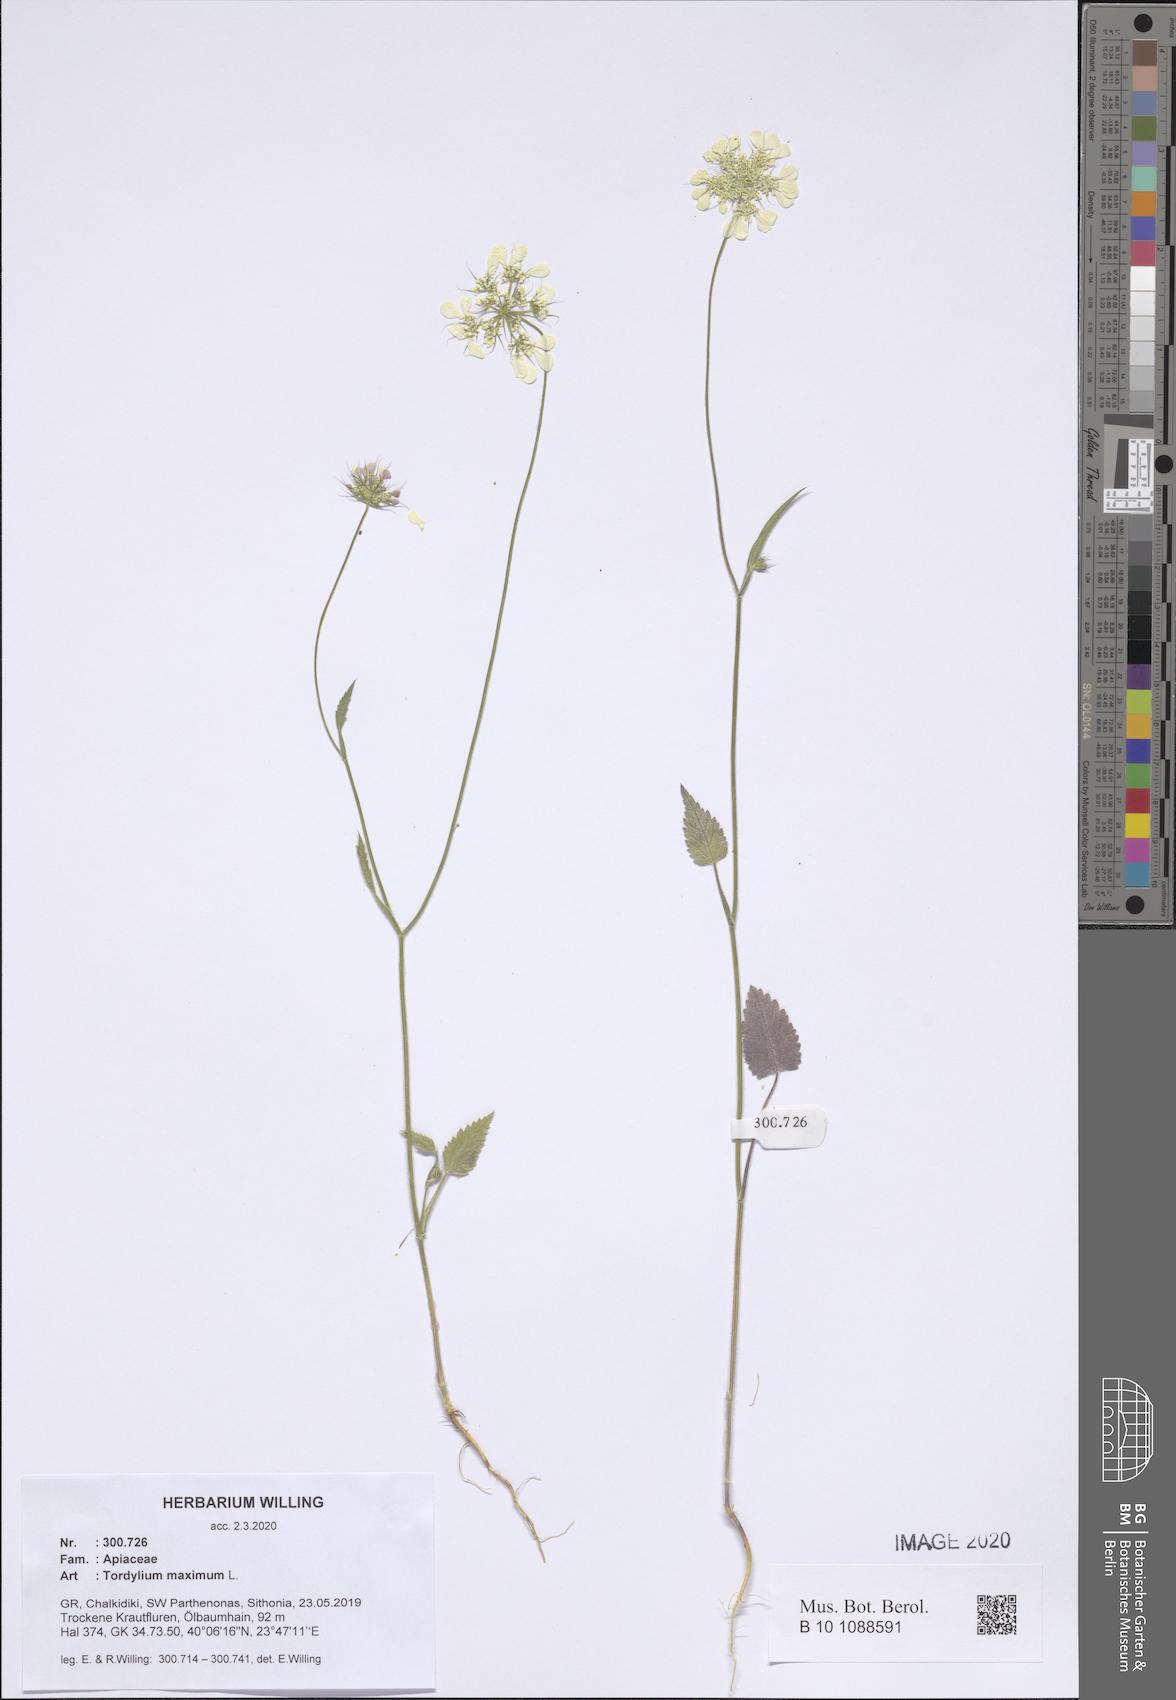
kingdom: Plantae
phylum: Tracheophyta
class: Magnoliopsida
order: Apiales
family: Apiaceae
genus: Tordylium
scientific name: Tordylium maximum
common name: Hartwort
